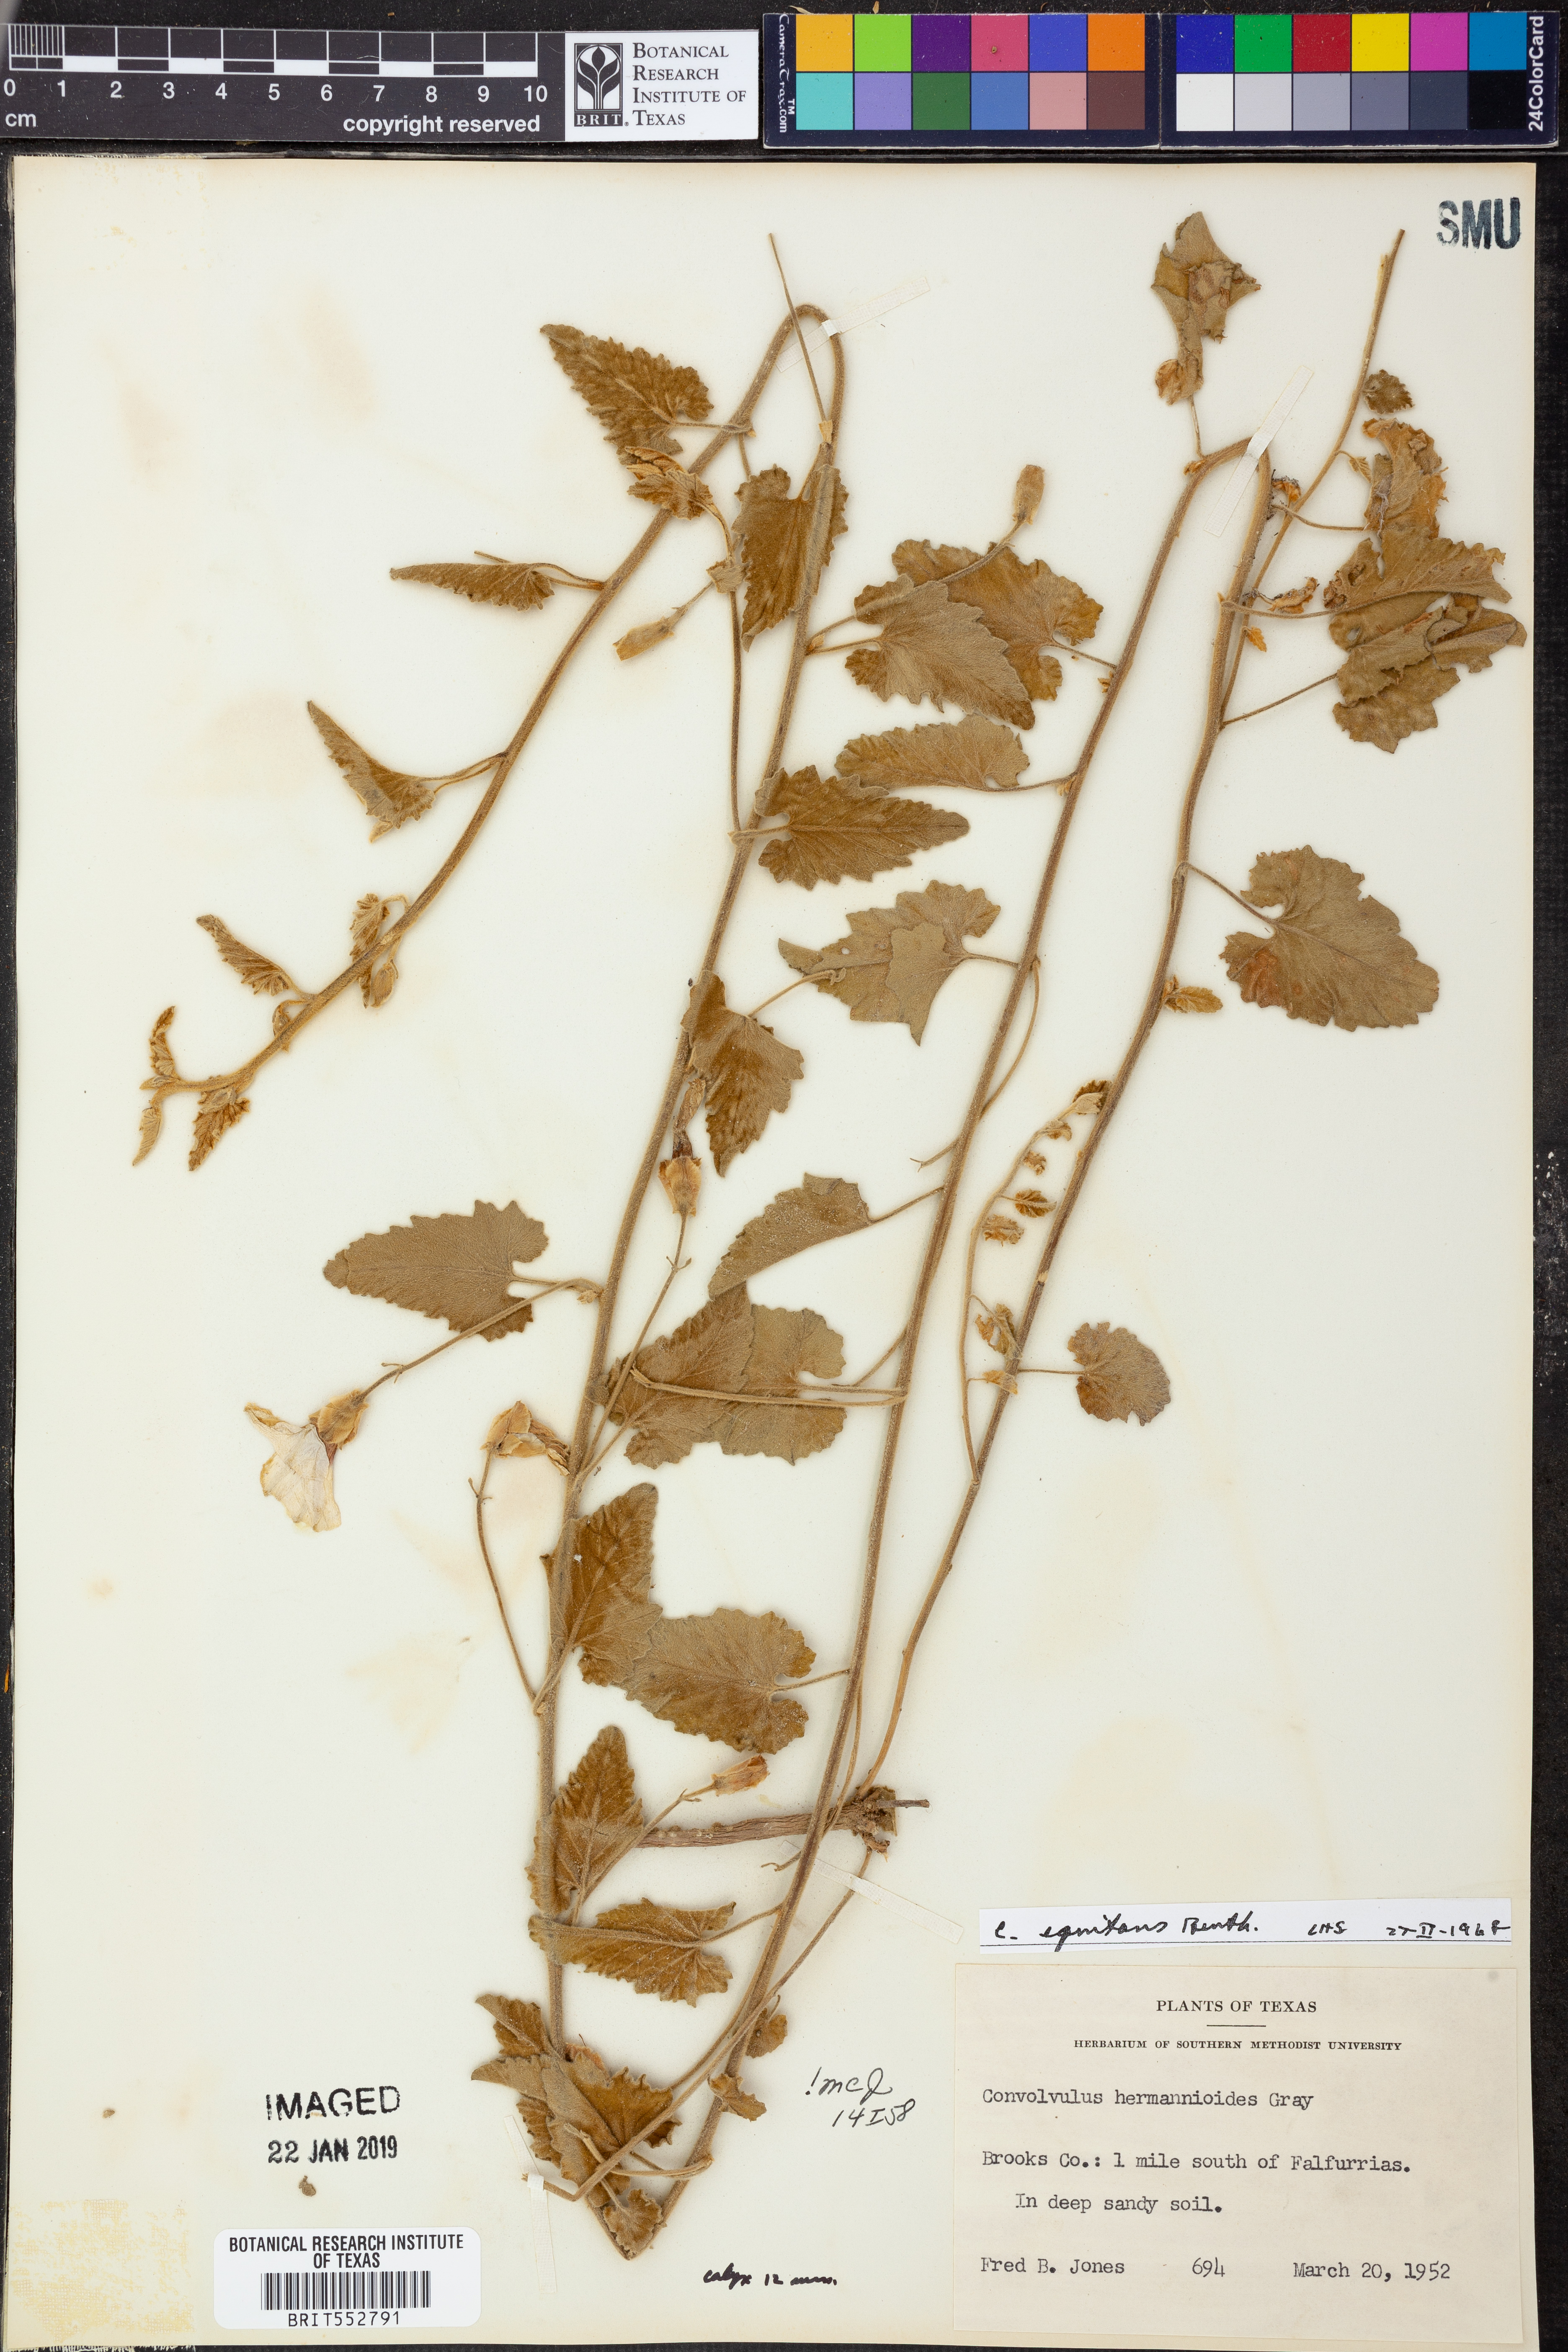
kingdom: Plantae
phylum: Tracheophyta
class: Magnoliopsida
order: Solanales
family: Convolvulaceae
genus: Convolvulus
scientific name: Convolvulus equitans
